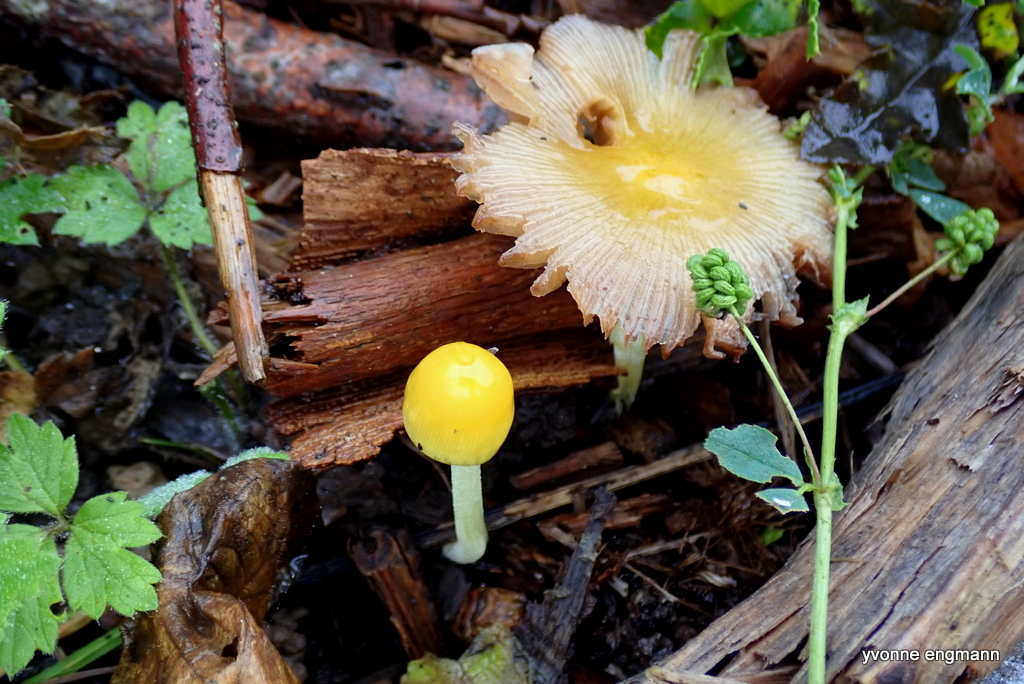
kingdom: Fungi
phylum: Basidiomycota
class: Agaricomycetes
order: Agaricales
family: Bolbitiaceae
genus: Bolbitius
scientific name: Bolbitius titubans
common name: almindelig gulhat
